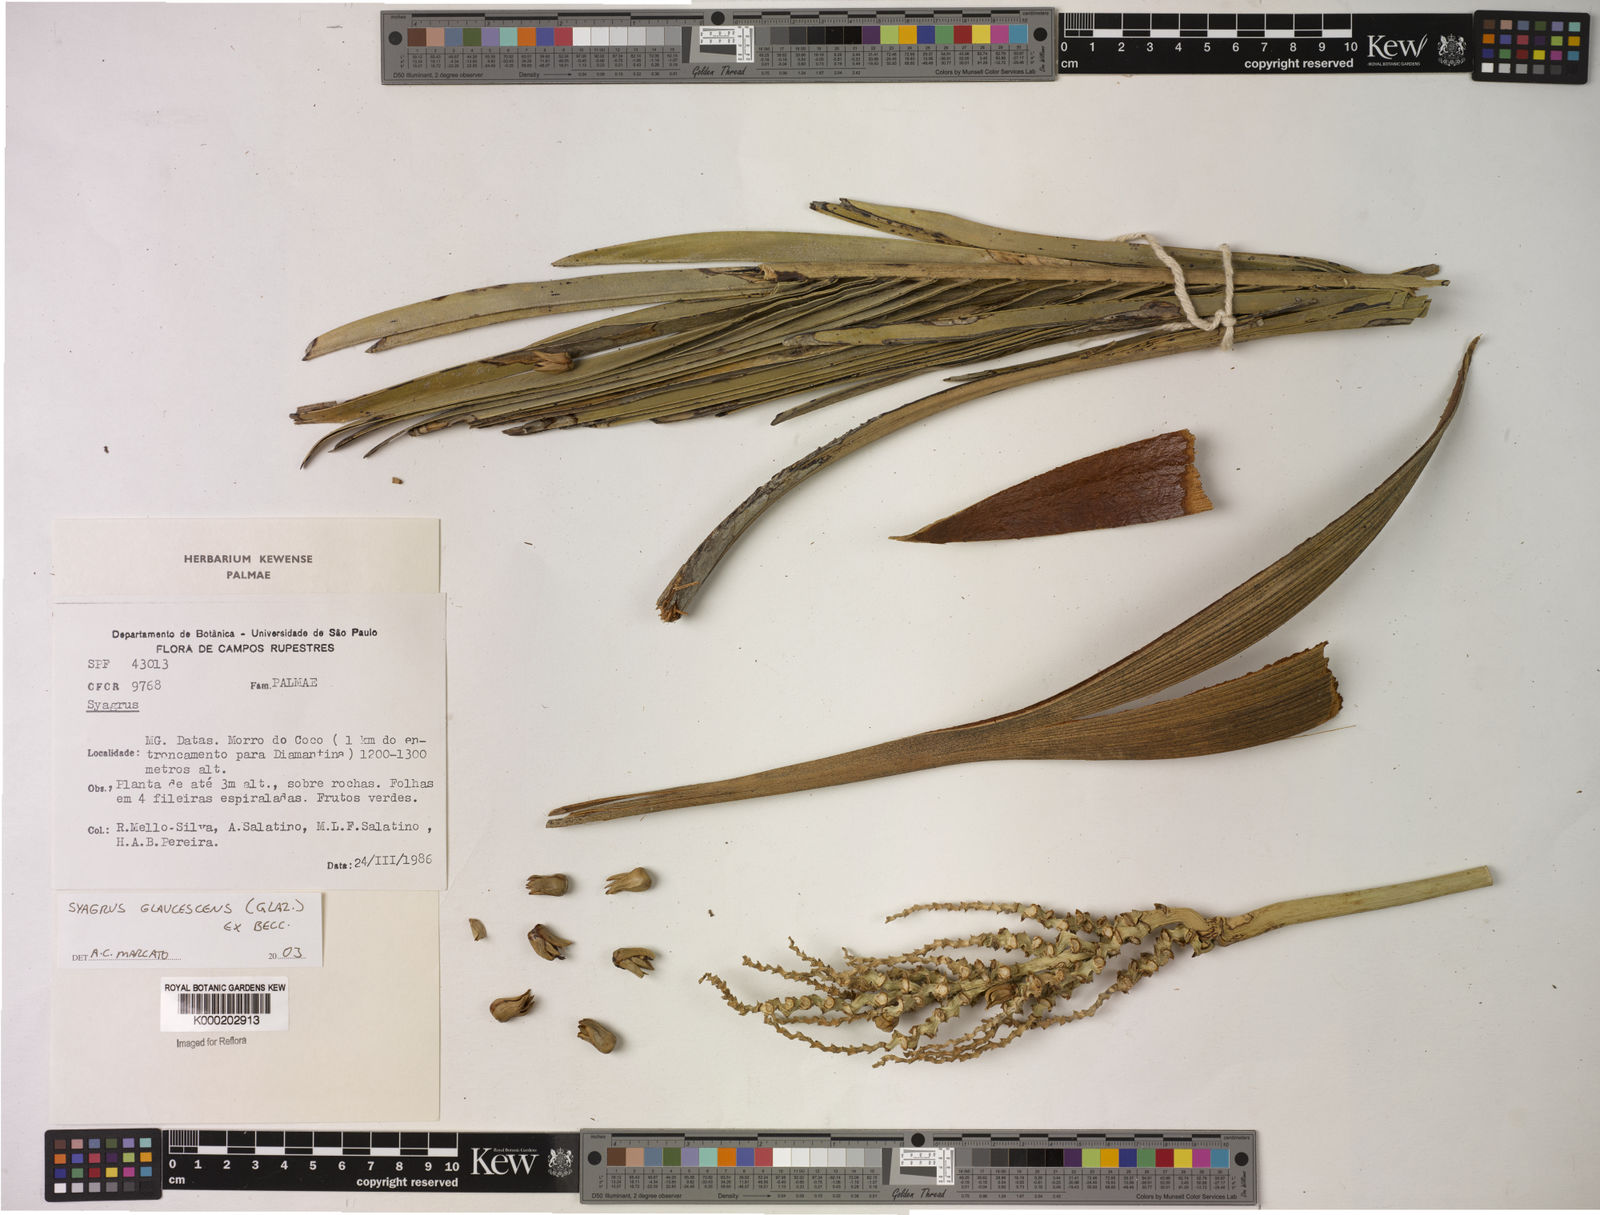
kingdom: Plantae
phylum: Tracheophyta
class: Liliopsida
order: Arecales
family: Arecaceae
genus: Syagrus
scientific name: Syagrus glaucescens
